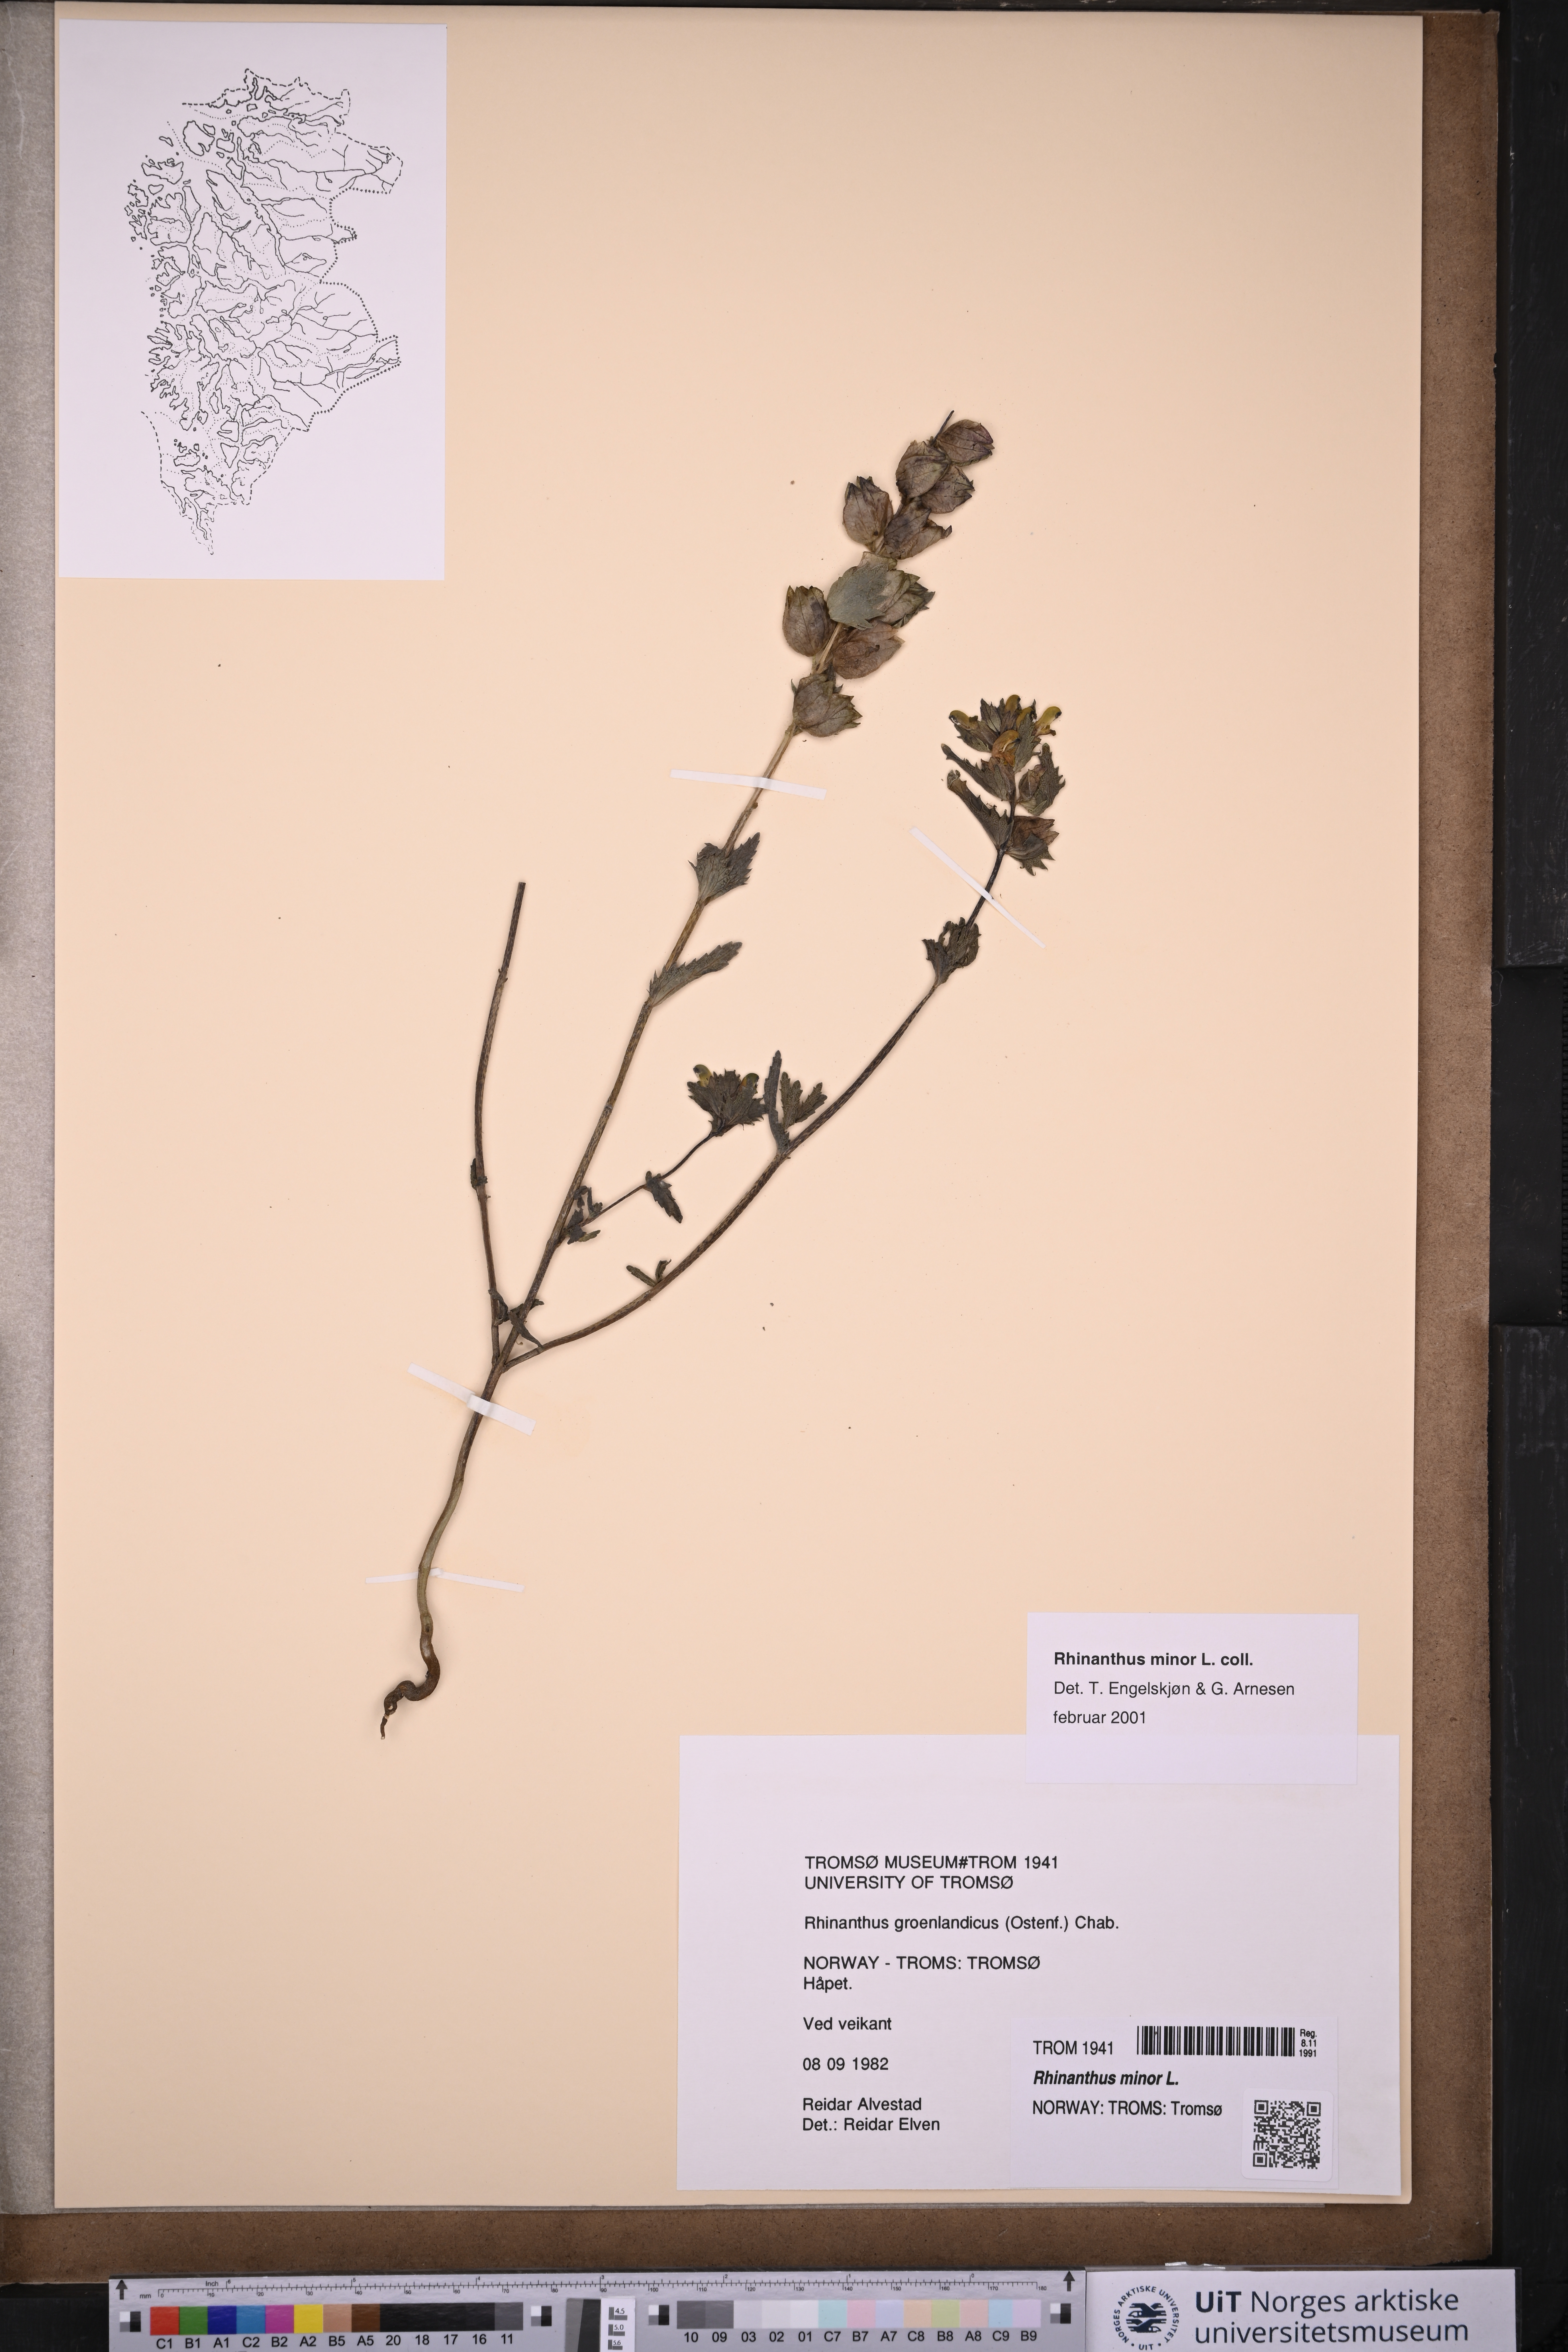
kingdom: Plantae
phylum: Tracheophyta
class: Magnoliopsida
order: Lamiales
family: Orobanchaceae
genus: Rhinanthus
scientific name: Rhinanthus minor
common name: Yellow-rattle
